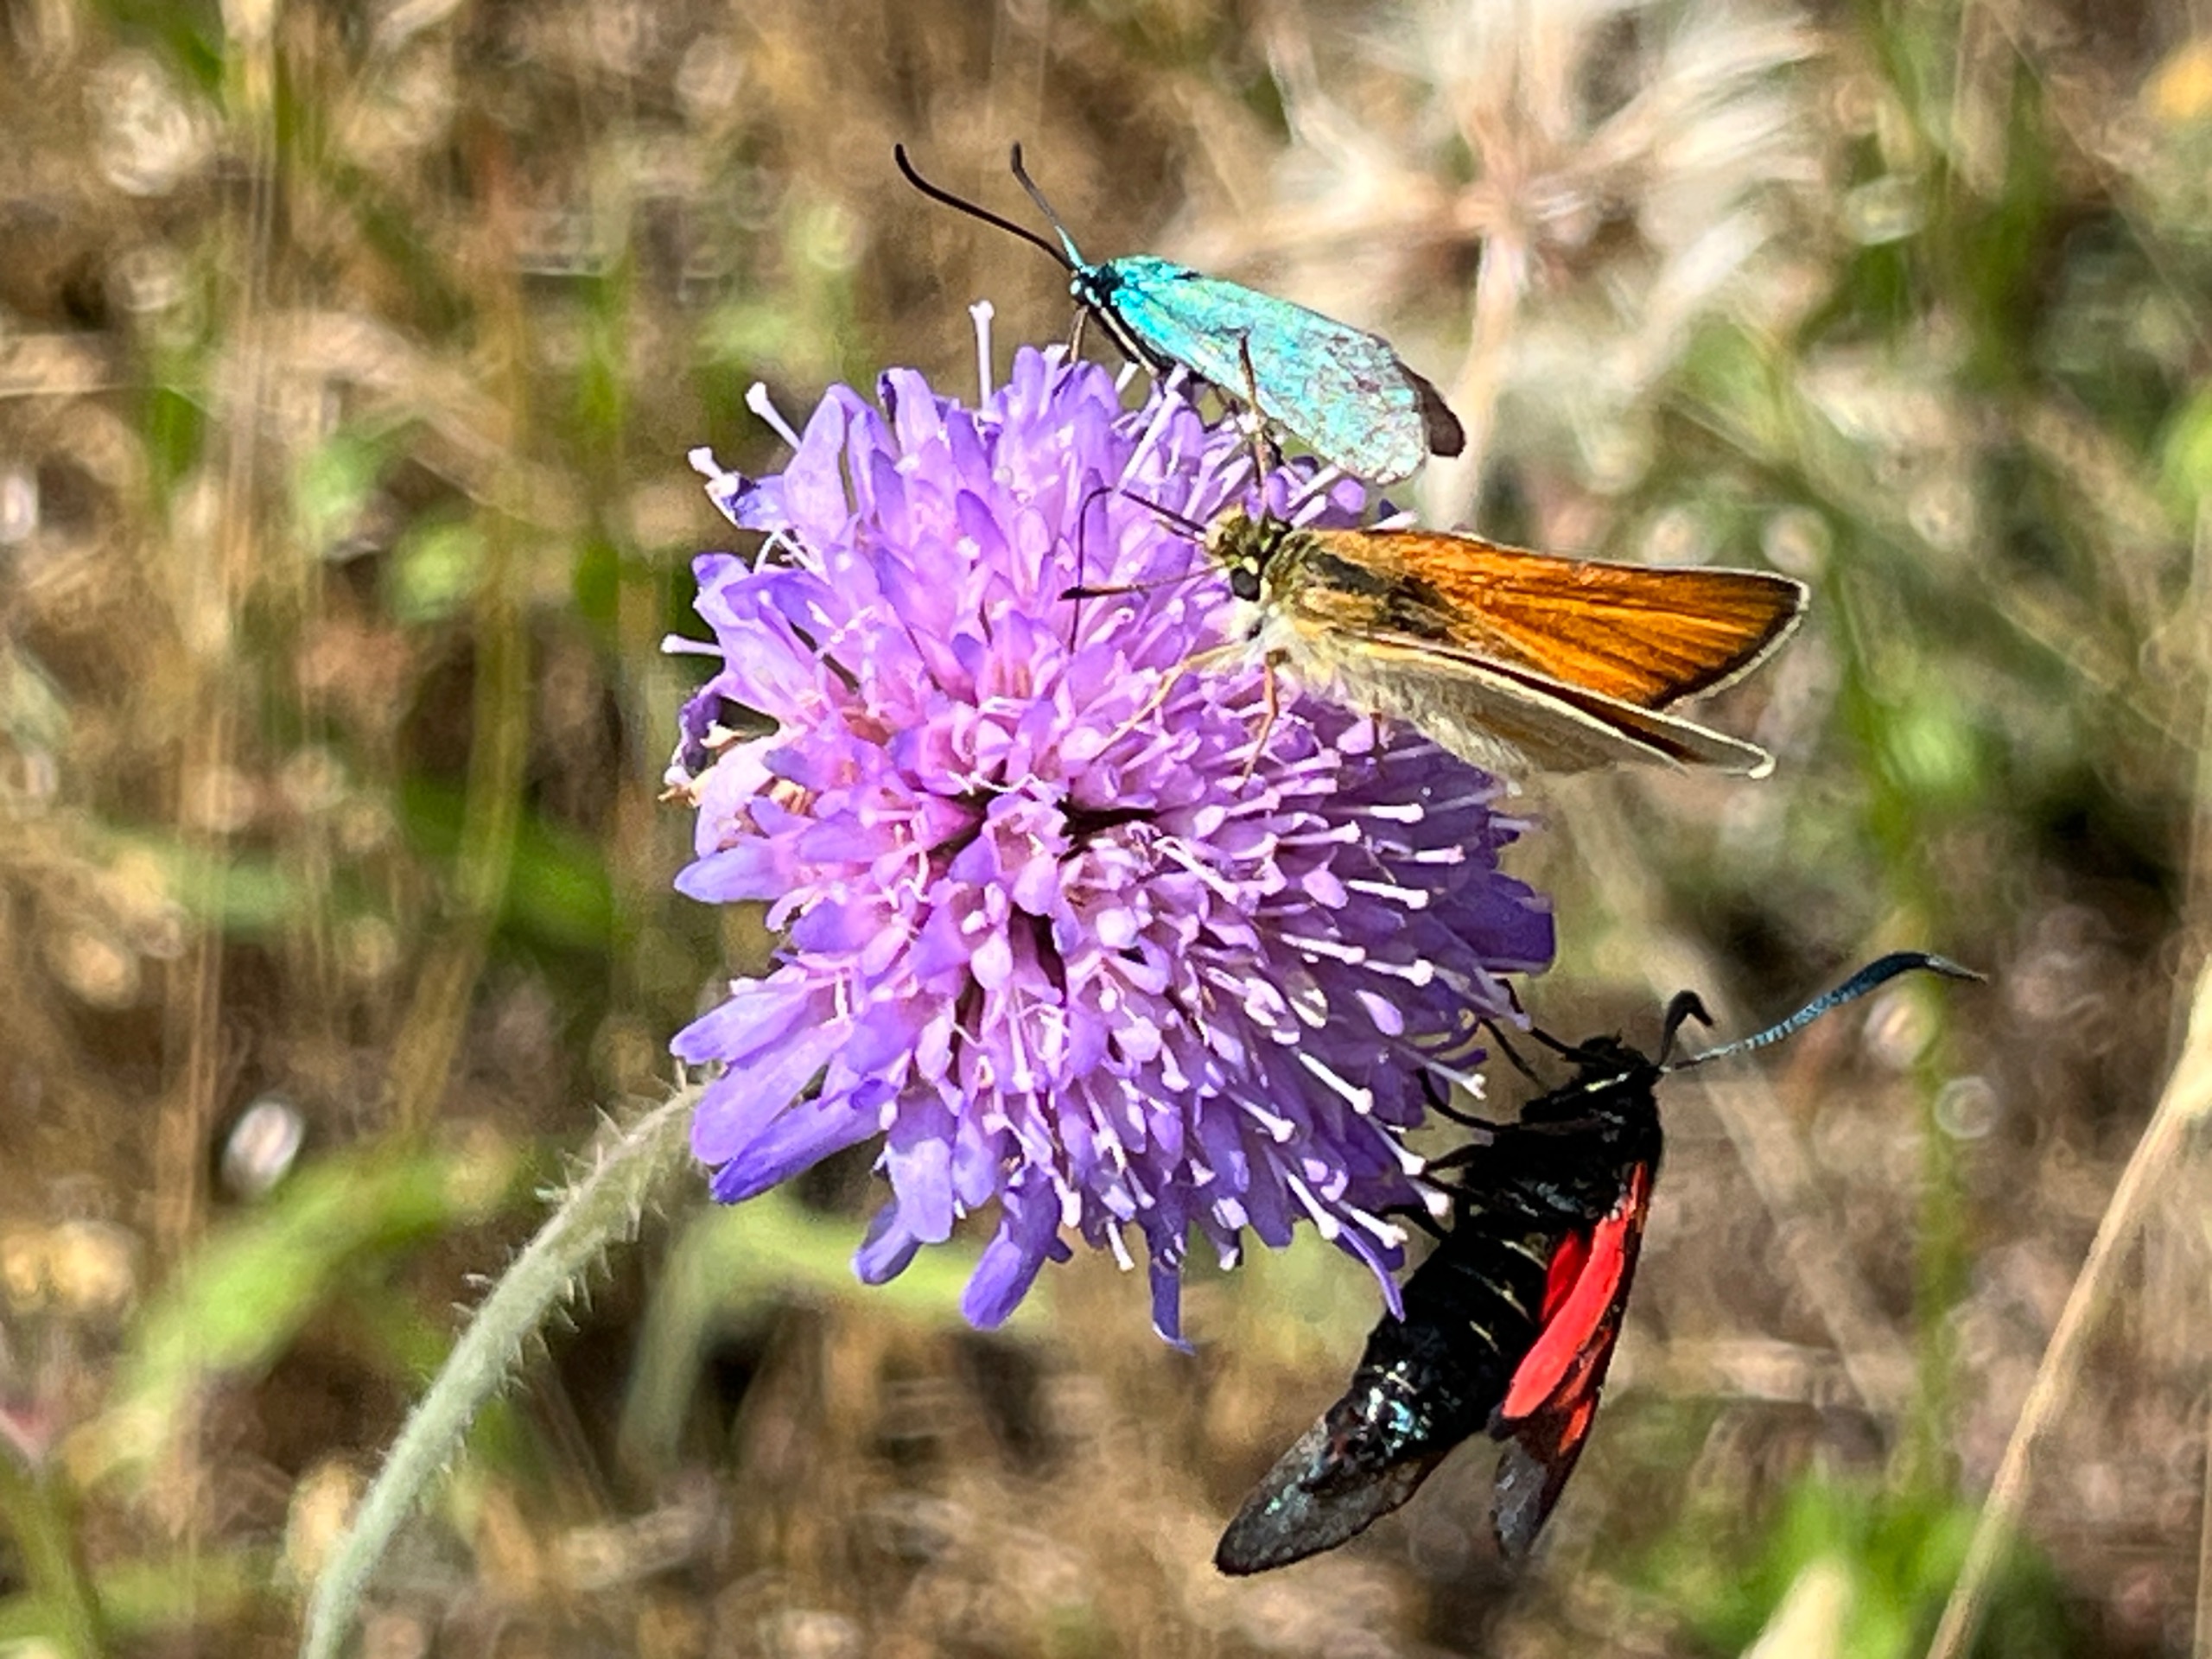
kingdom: Animalia
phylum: Arthropoda
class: Insecta
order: Lepidoptera
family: Zygaenidae
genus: Adscita
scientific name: Adscita statices
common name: Metalvinge
